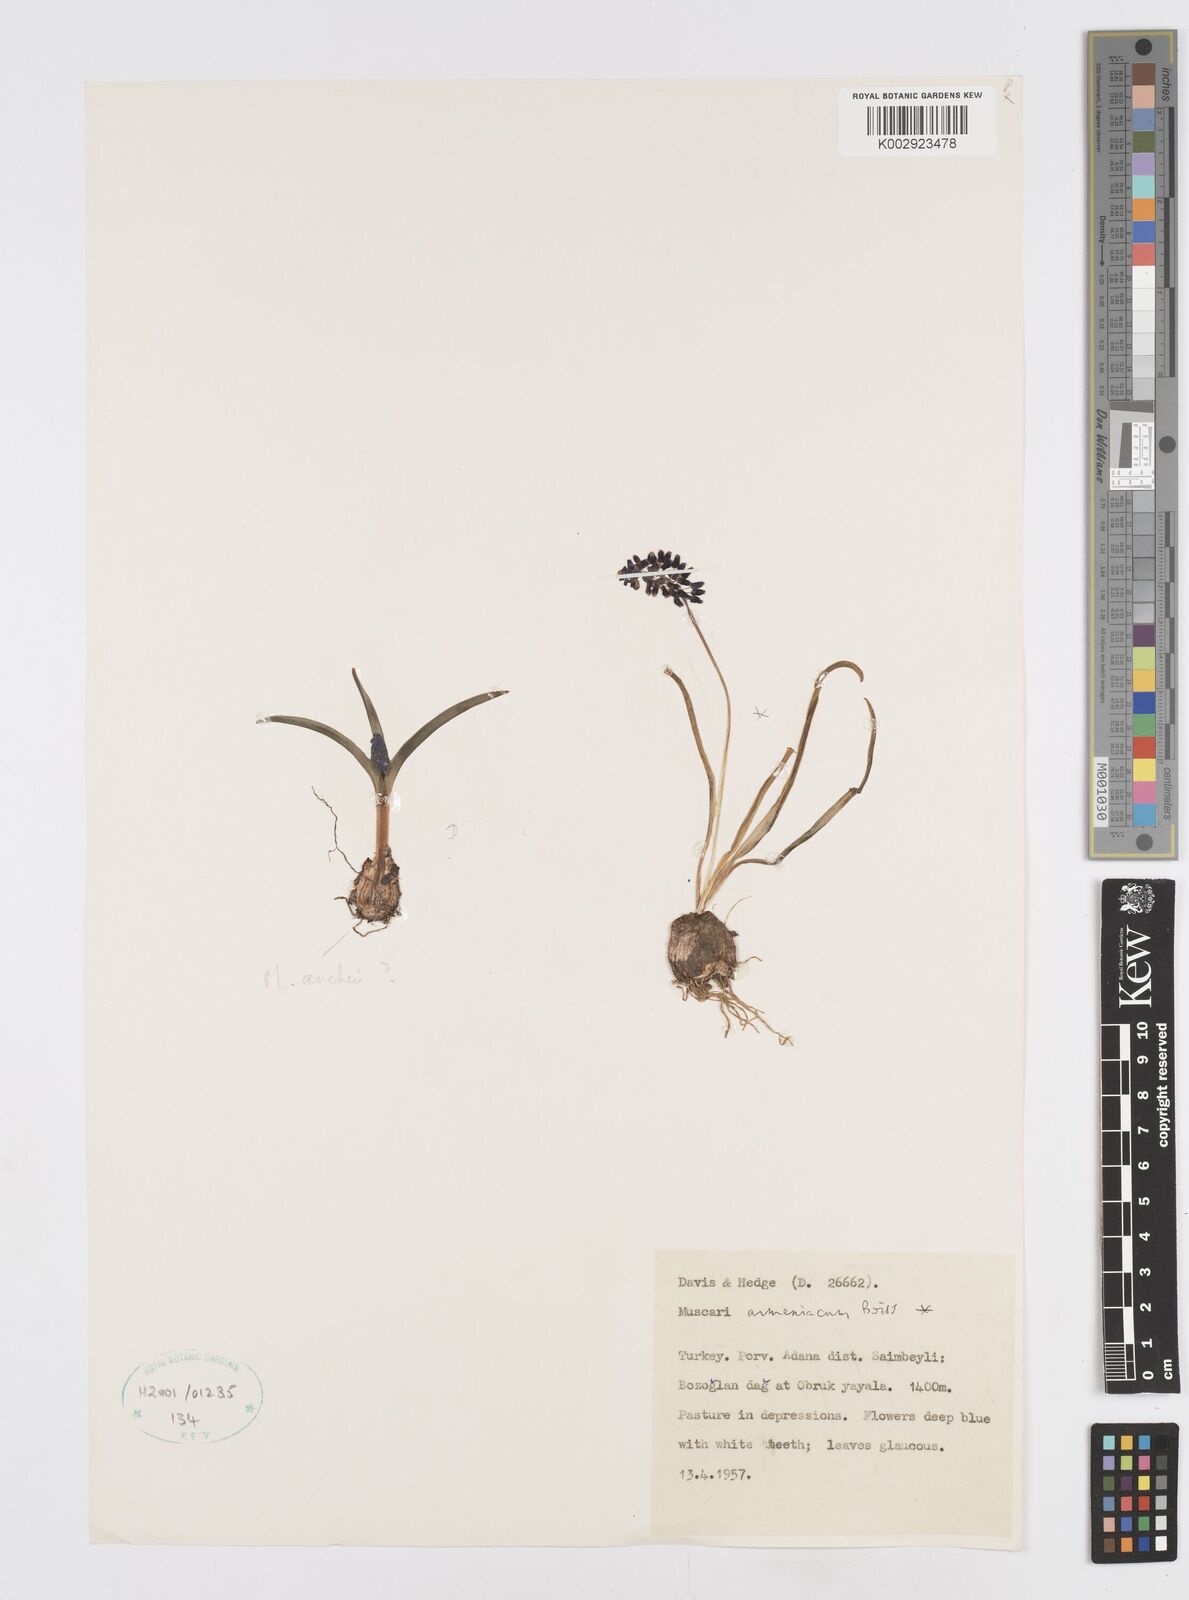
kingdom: Plantae
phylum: Tracheophyta
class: Liliopsida
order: Asparagales
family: Asparagaceae
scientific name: Asparagaceae
